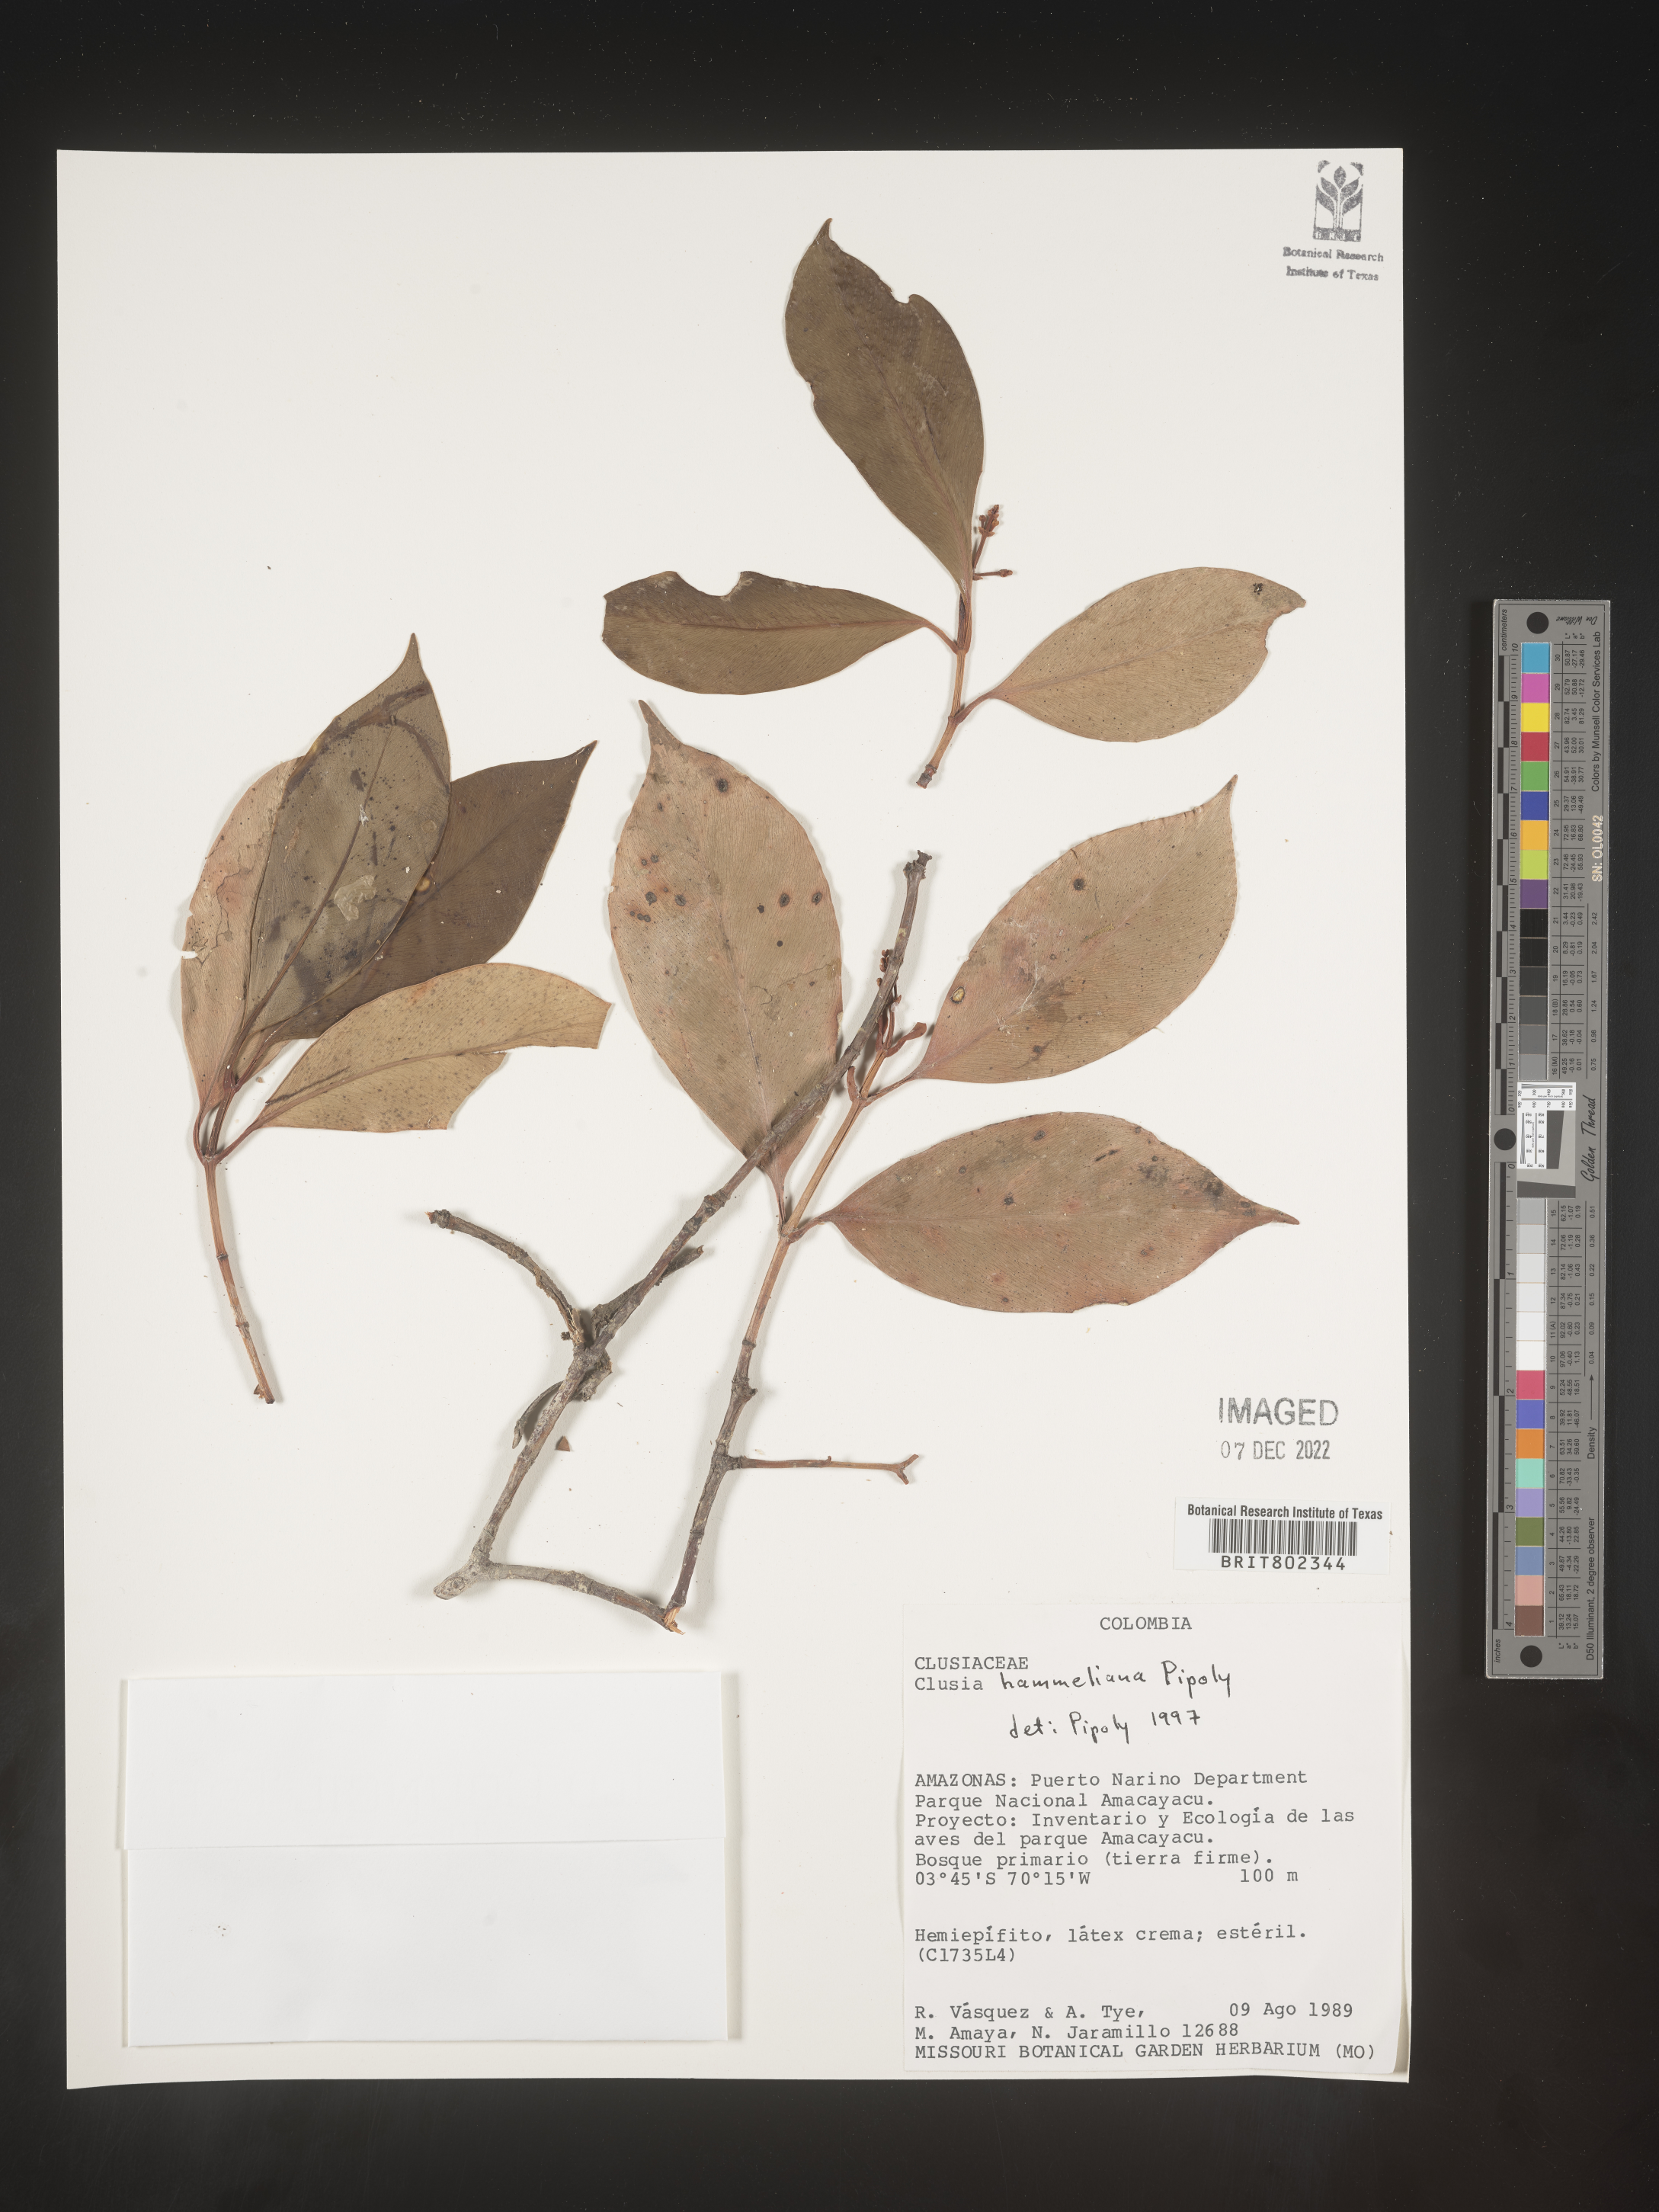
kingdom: Plantae
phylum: Tracheophyta
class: Magnoliopsida
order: Malpighiales
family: Clusiaceae
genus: Clusia
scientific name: Clusia hammeliana
